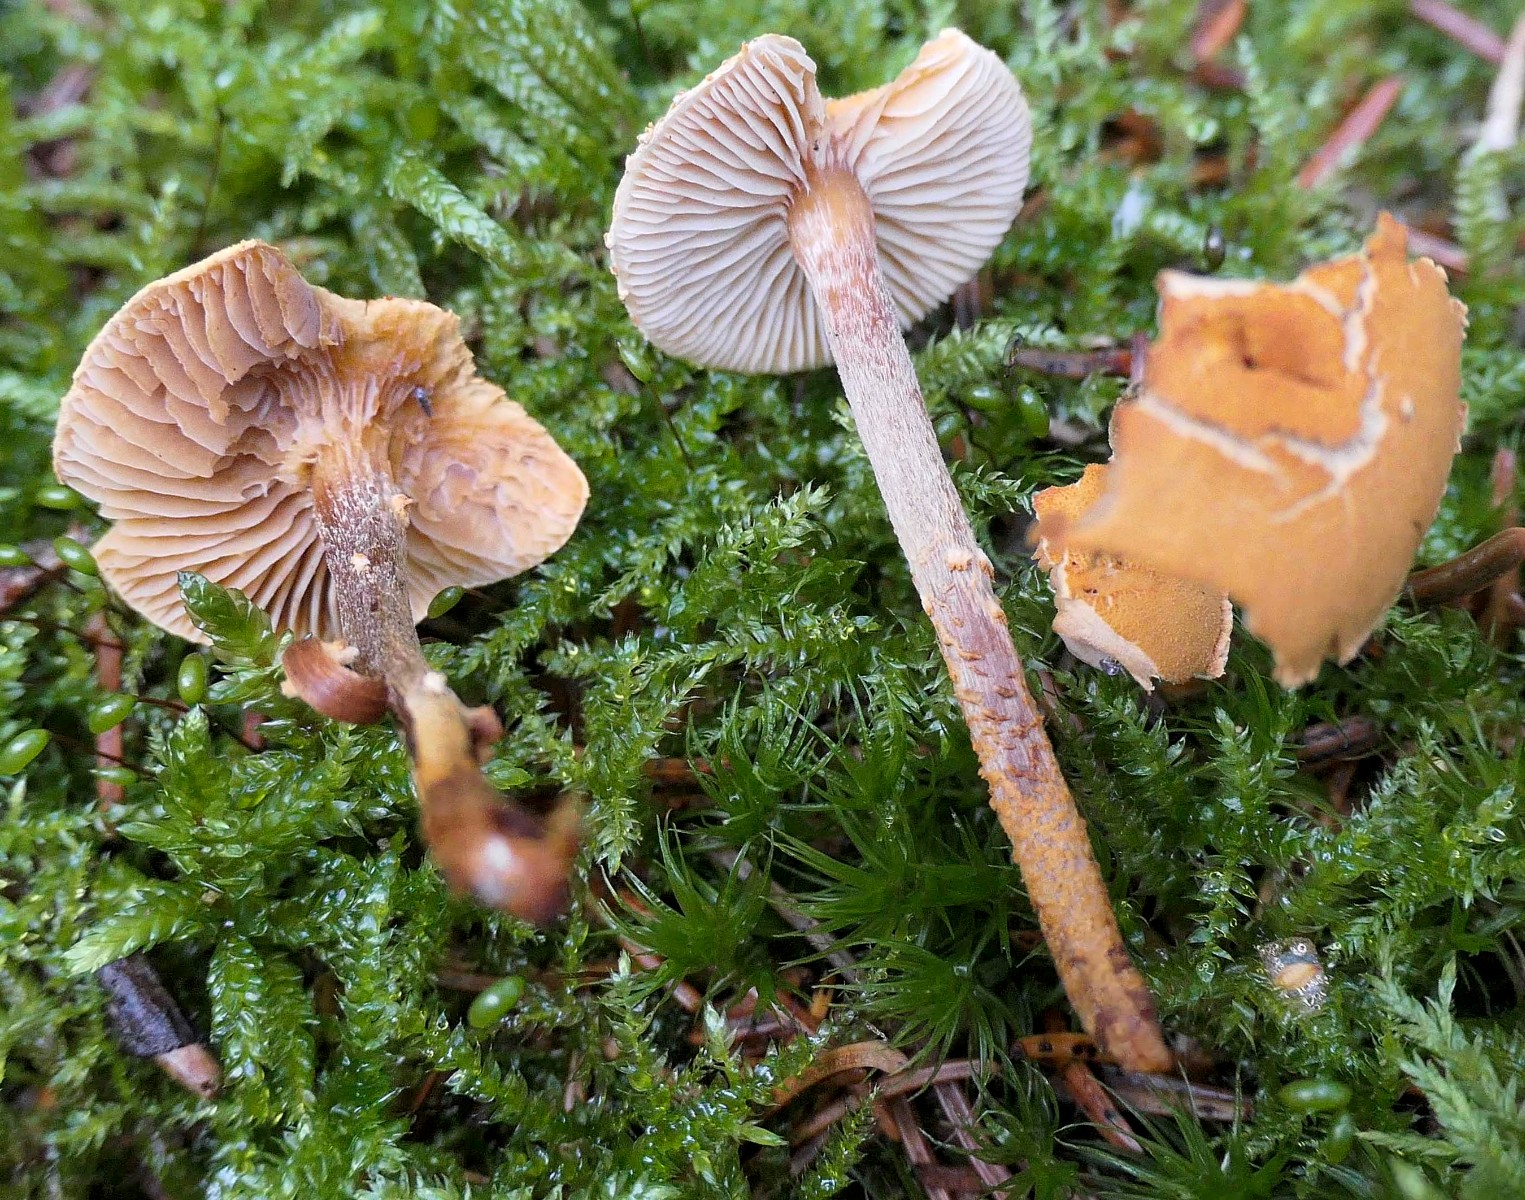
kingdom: Fungi
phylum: Basidiomycota
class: Agaricomycetes
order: Agaricales
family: Tricholomataceae
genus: Cystoderma
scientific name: Cystoderma jasonis
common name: gulkødet grynhat
